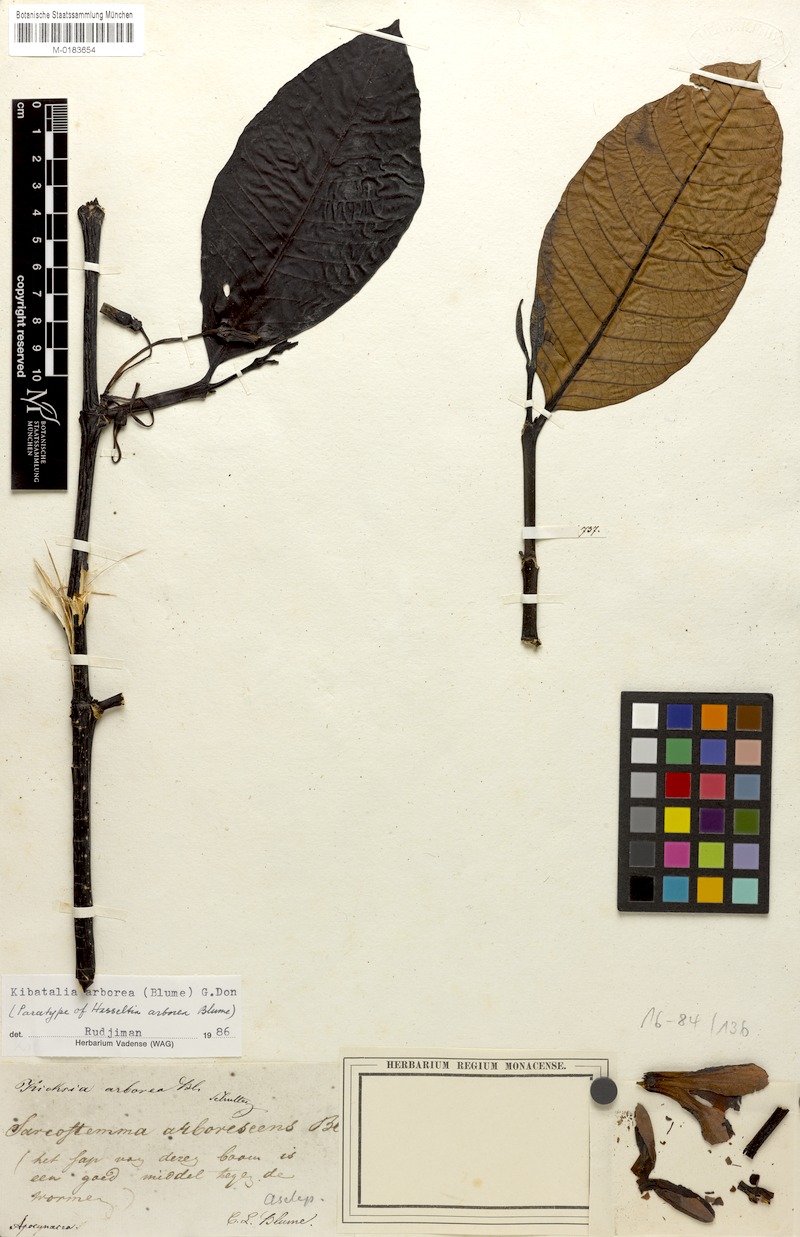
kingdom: Plantae
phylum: Tracheophyta
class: Magnoliopsida
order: Gentianales
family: Apocynaceae
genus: Kibatalia
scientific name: Kibatalia arborea
